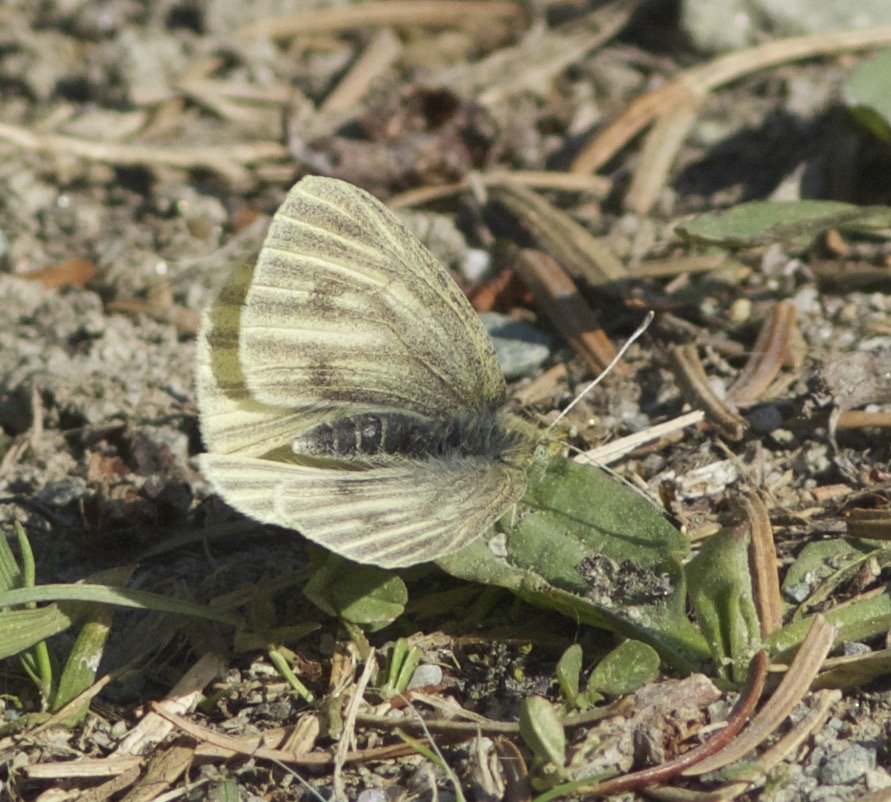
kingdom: Animalia
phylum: Arthropoda
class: Insecta
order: Lepidoptera
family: Pieridae
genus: Pieris
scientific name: Pieris marginalis
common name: Margined White
